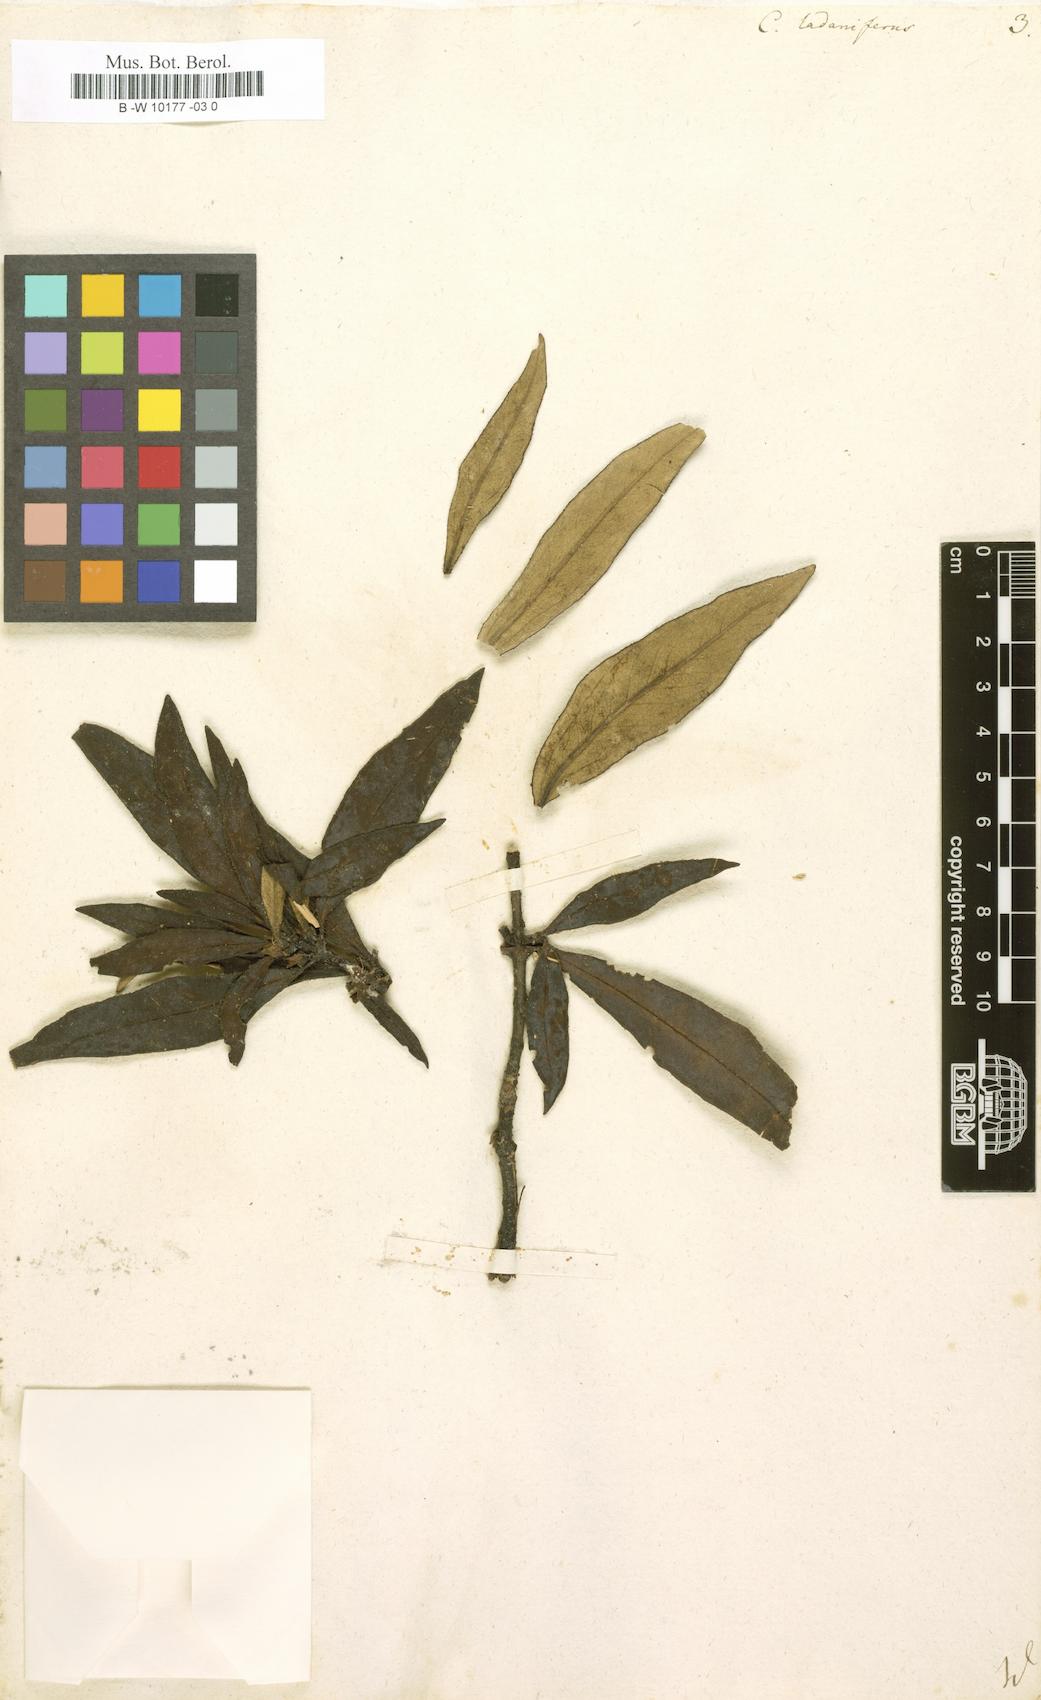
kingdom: Plantae
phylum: Tracheophyta
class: Magnoliopsida
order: Malvales
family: Cistaceae
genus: Cistus
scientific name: Cistus creticus
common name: Cretan rockrose
